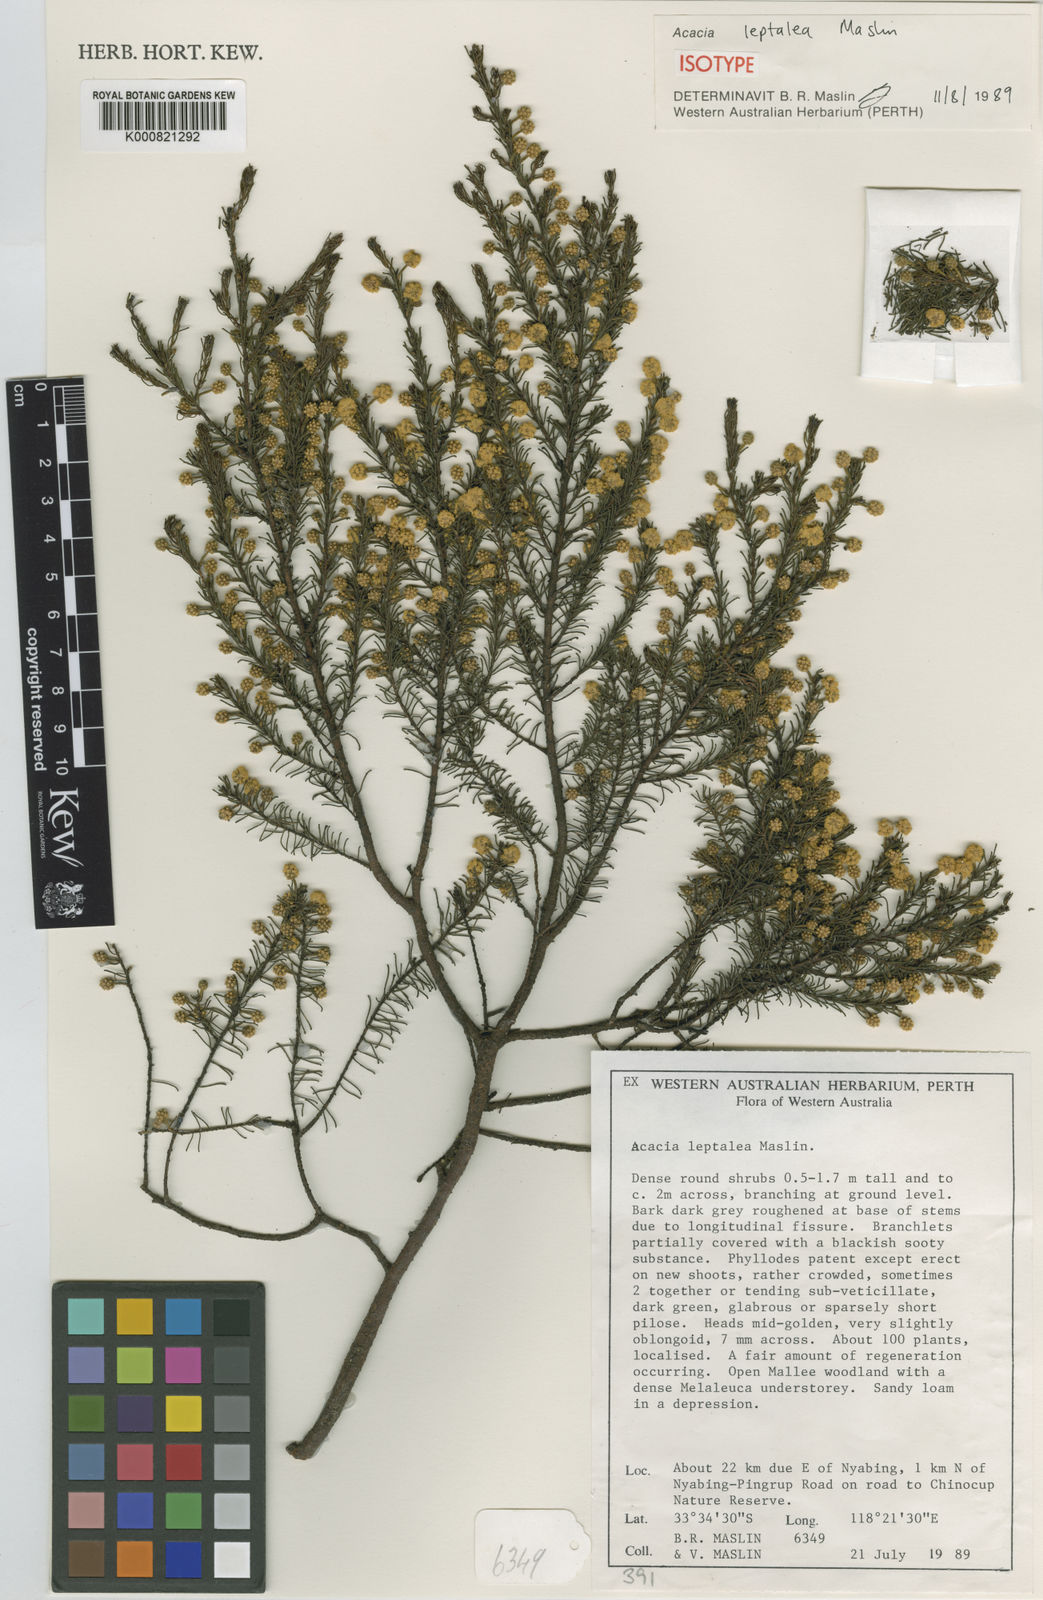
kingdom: Plantae
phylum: Tracheophyta
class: Magnoliopsida
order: Fabales
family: Fabaceae
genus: Acacia
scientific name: Acacia leptalea
